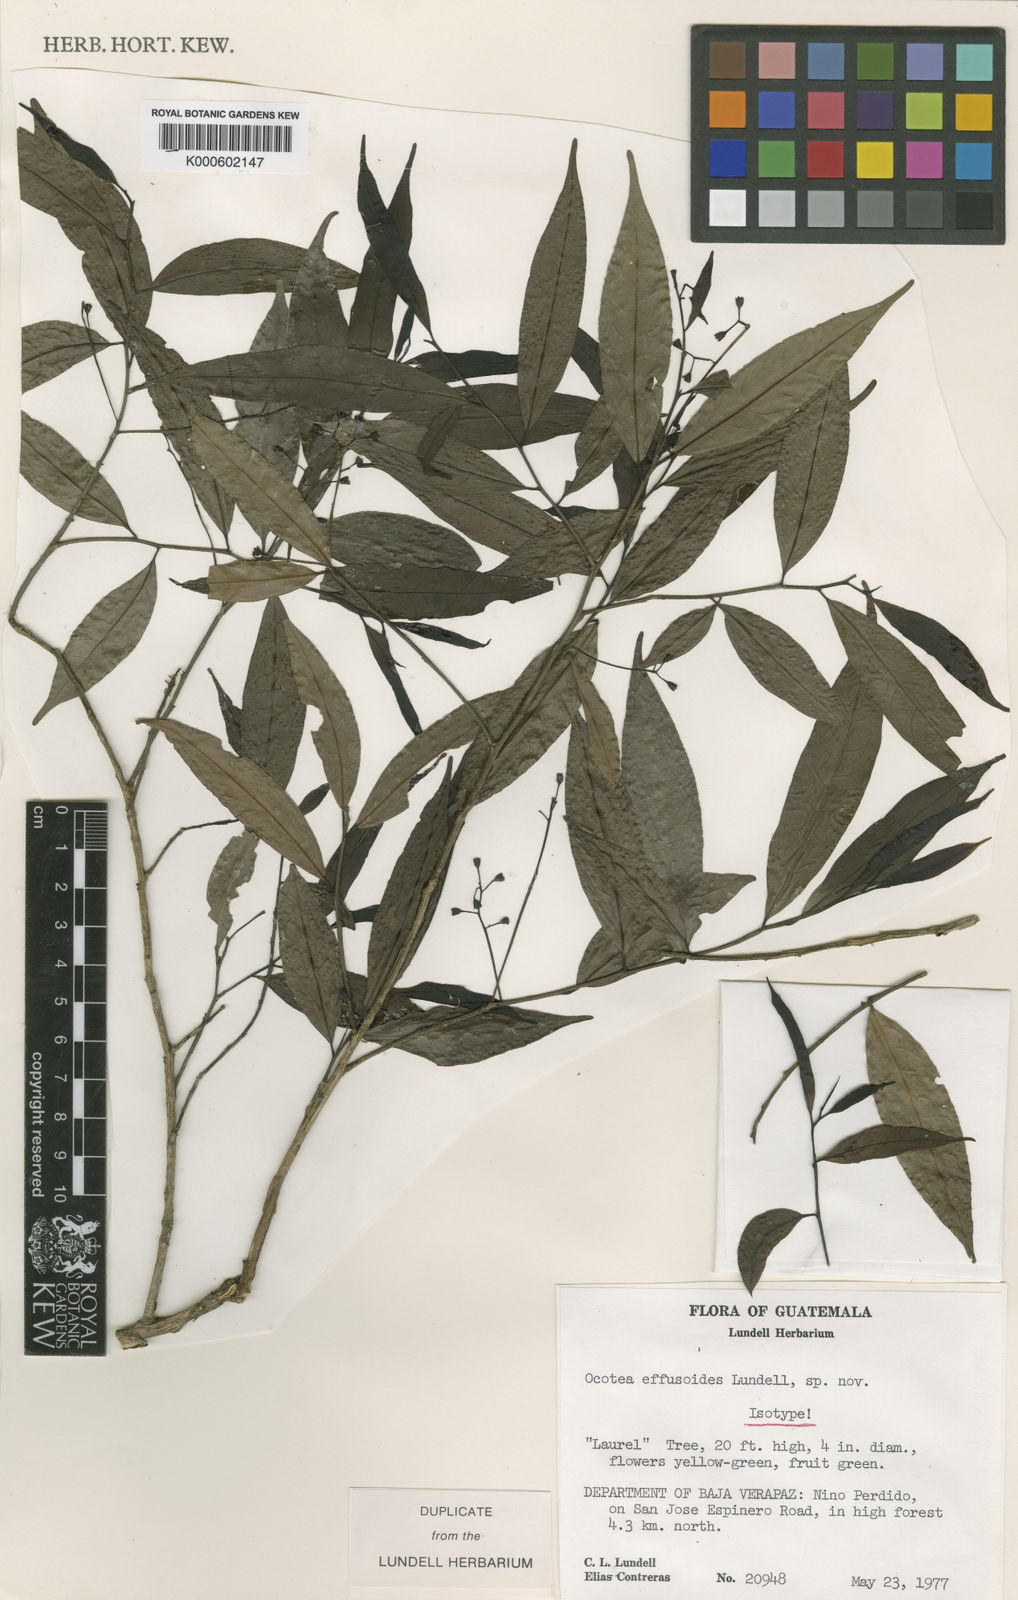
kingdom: Plantae
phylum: Tracheophyta
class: Magnoliopsida
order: Laurales
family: Lauraceae
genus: Ocotea
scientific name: Ocotea tenera
